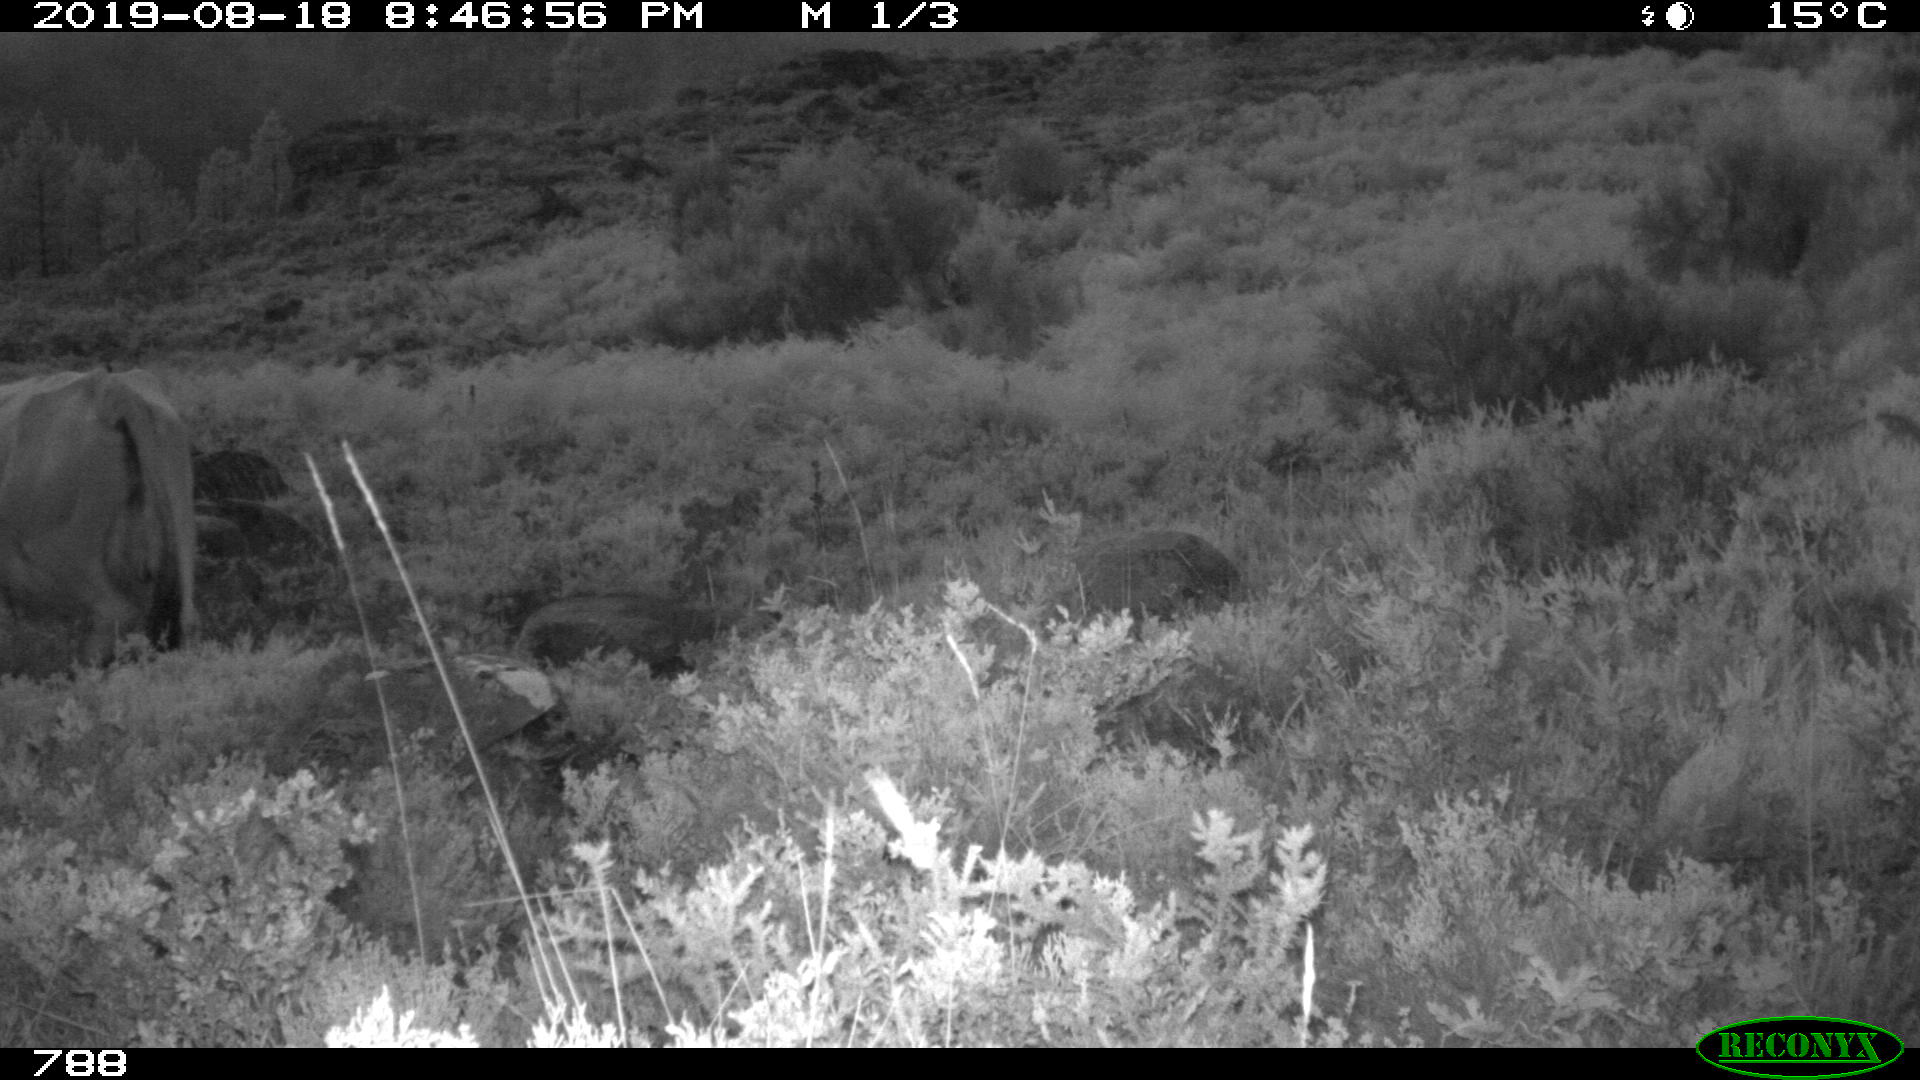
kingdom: Animalia
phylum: Chordata
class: Mammalia
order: Artiodactyla
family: Bovidae
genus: Bos
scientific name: Bos taurus
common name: Domesticated cattle
